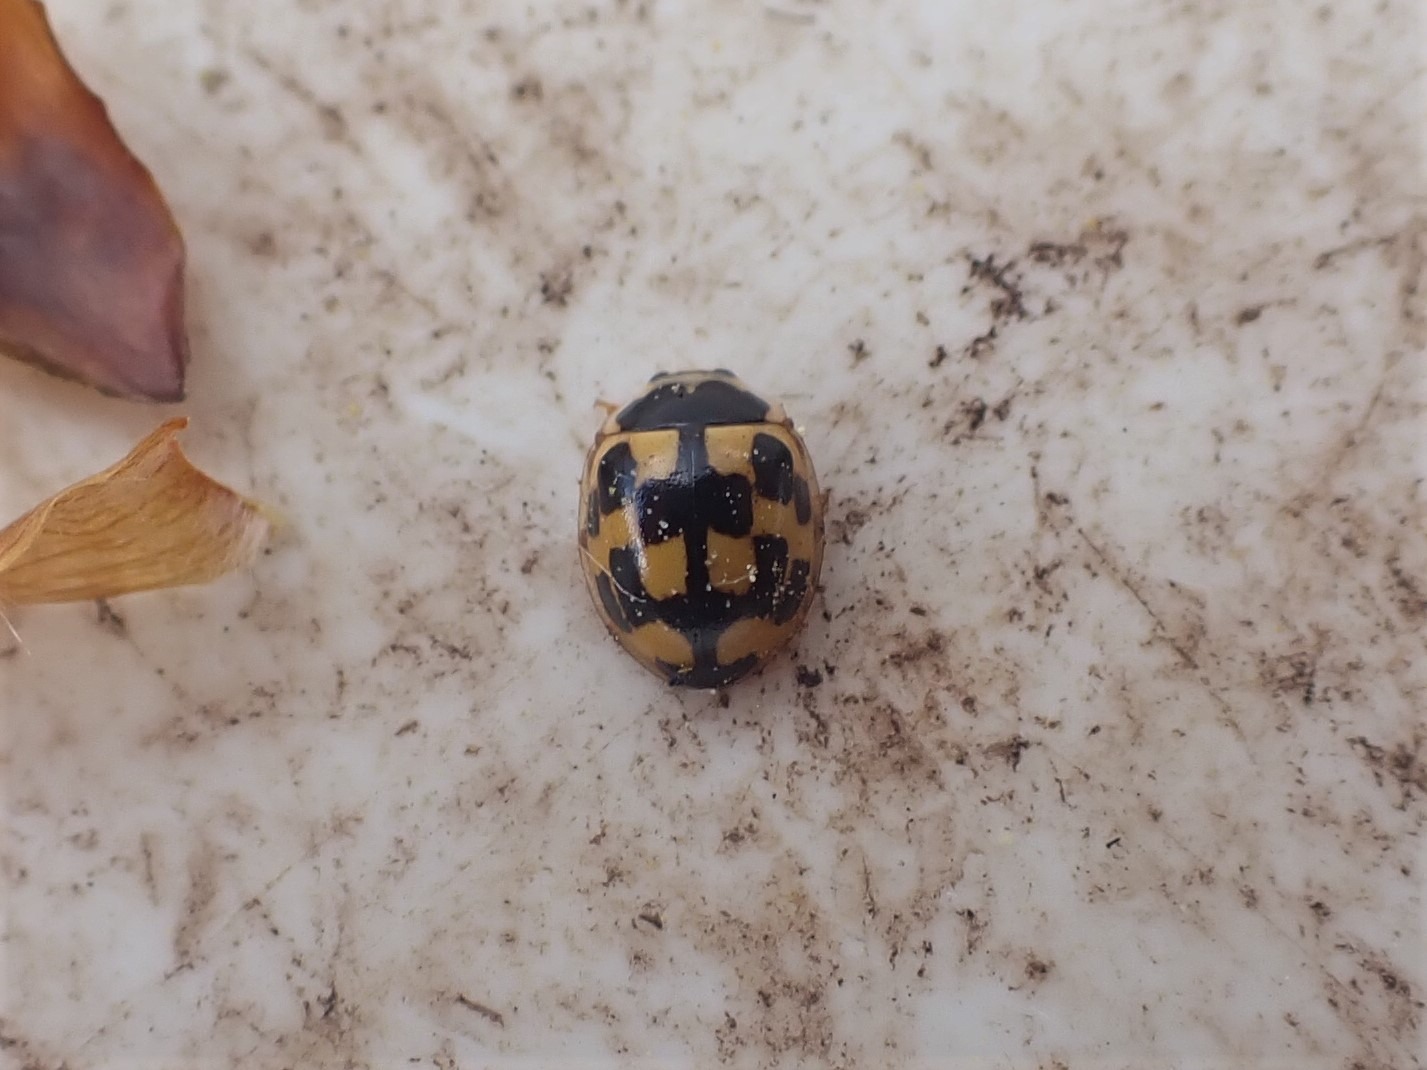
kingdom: Animalia
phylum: Arthropoda
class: Insecta
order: Coleoptera
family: Coccinellidae
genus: Propylaea
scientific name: Propylaea quatuordecimpunctata
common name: Skakbræt
